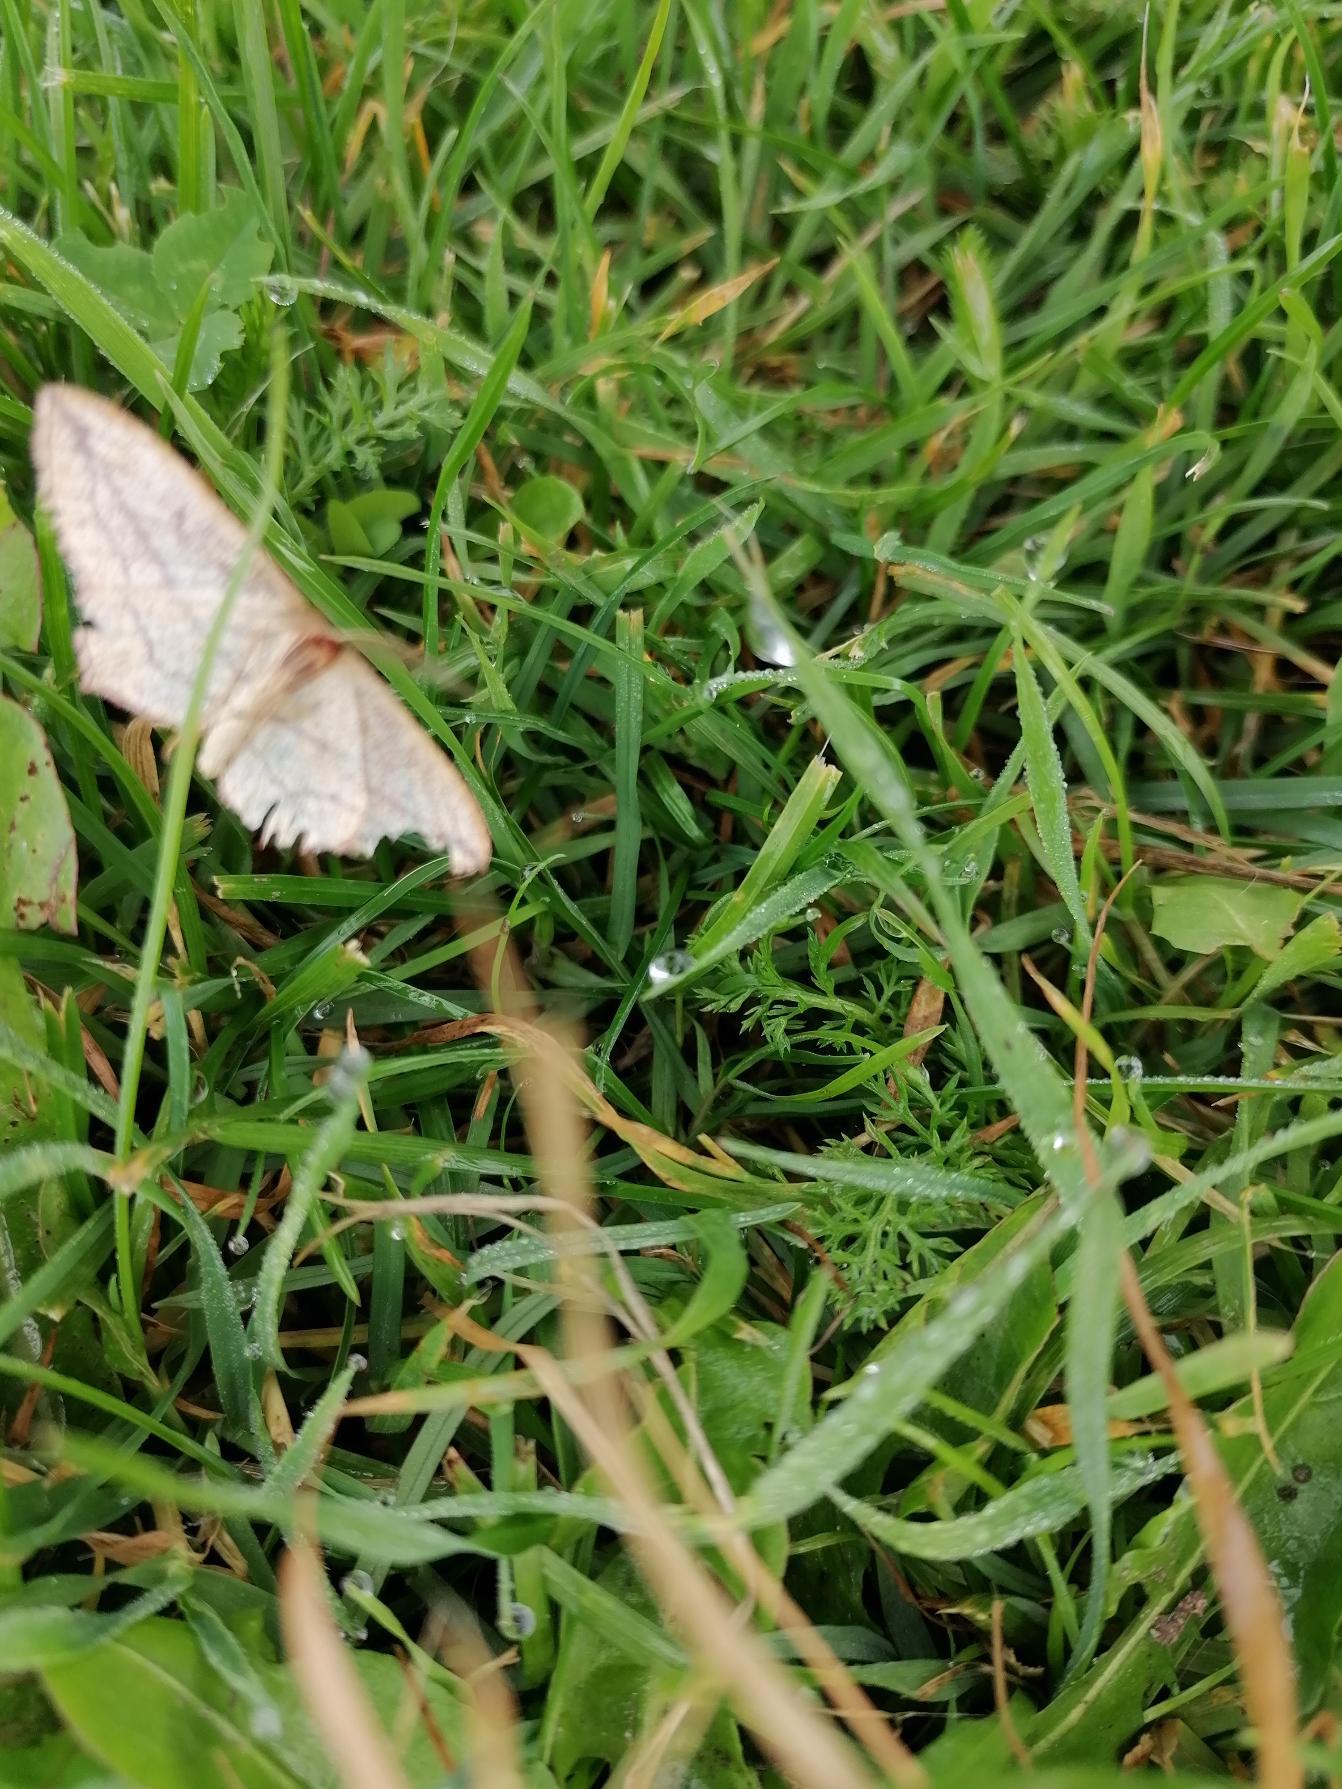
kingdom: Animalia
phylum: Arthropoda
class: Insecta
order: Lepidoptera
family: Geometridae
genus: Timandra
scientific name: Timandra comae
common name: Gul syremåler
